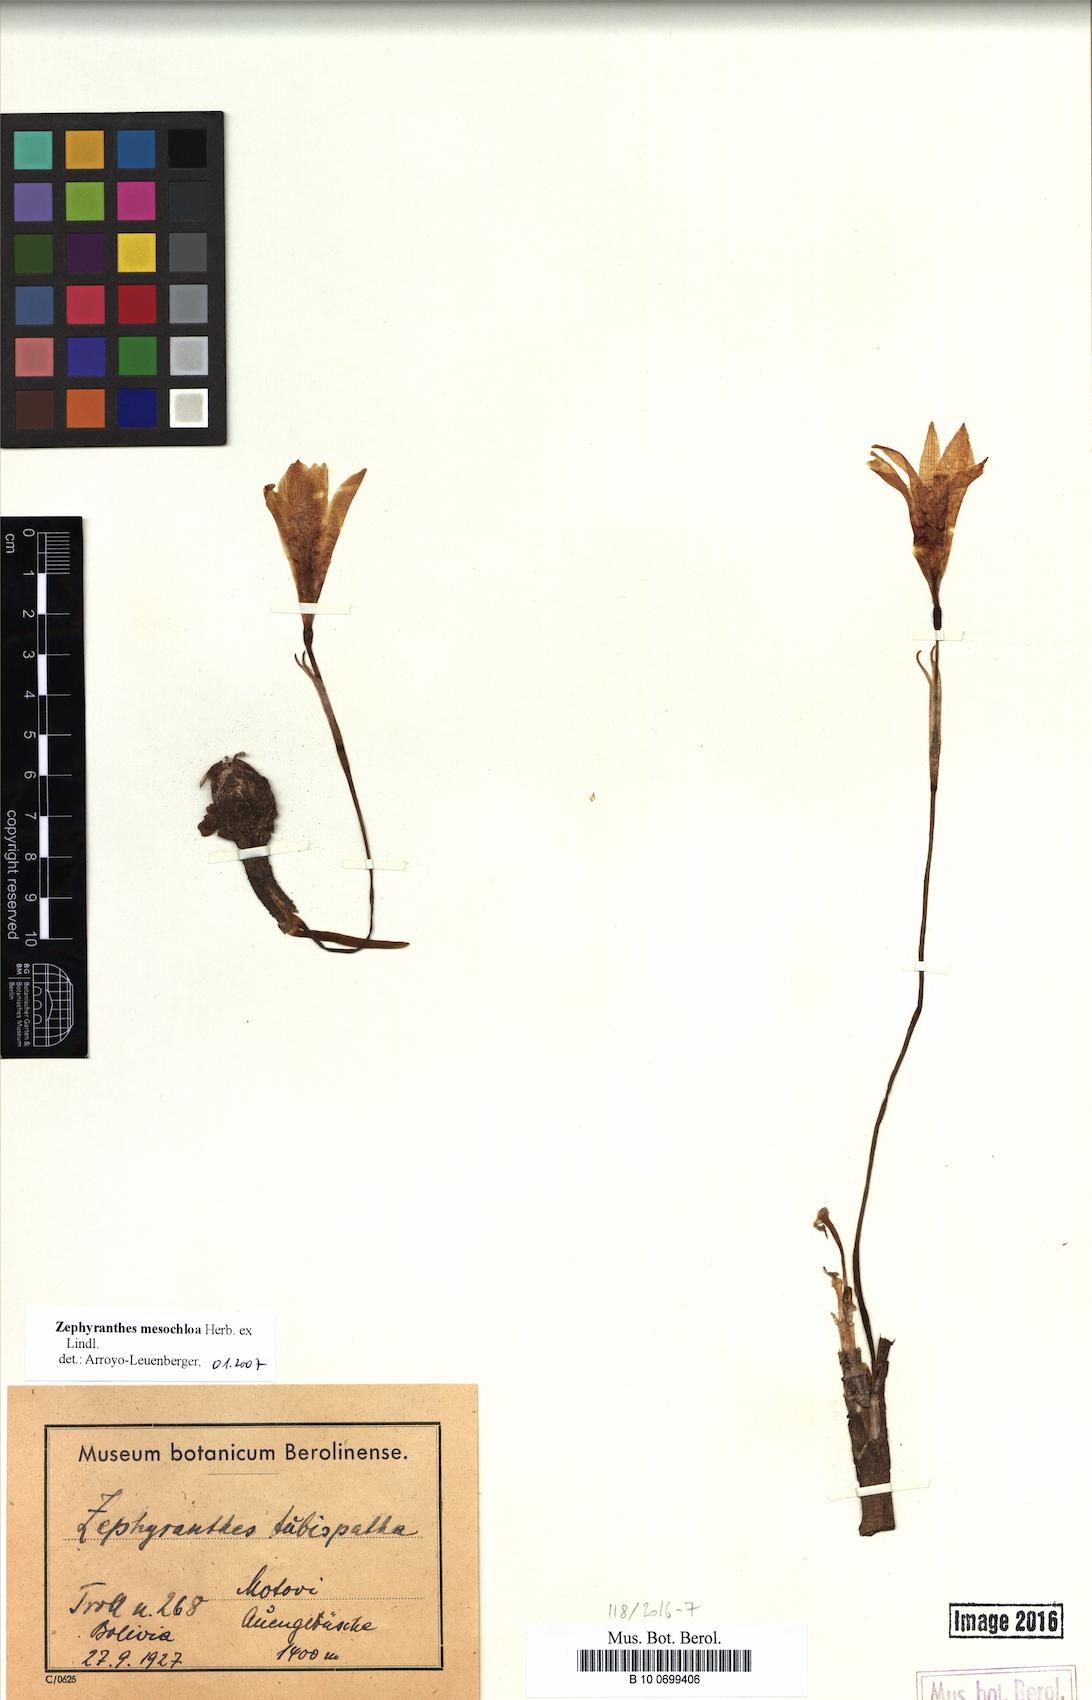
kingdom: Plantae
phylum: Tracheophyta
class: Liliopsida
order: Asparagales
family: Amaryllidaceae
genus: Zephyranthes
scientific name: Zephyranthes mesochloa
